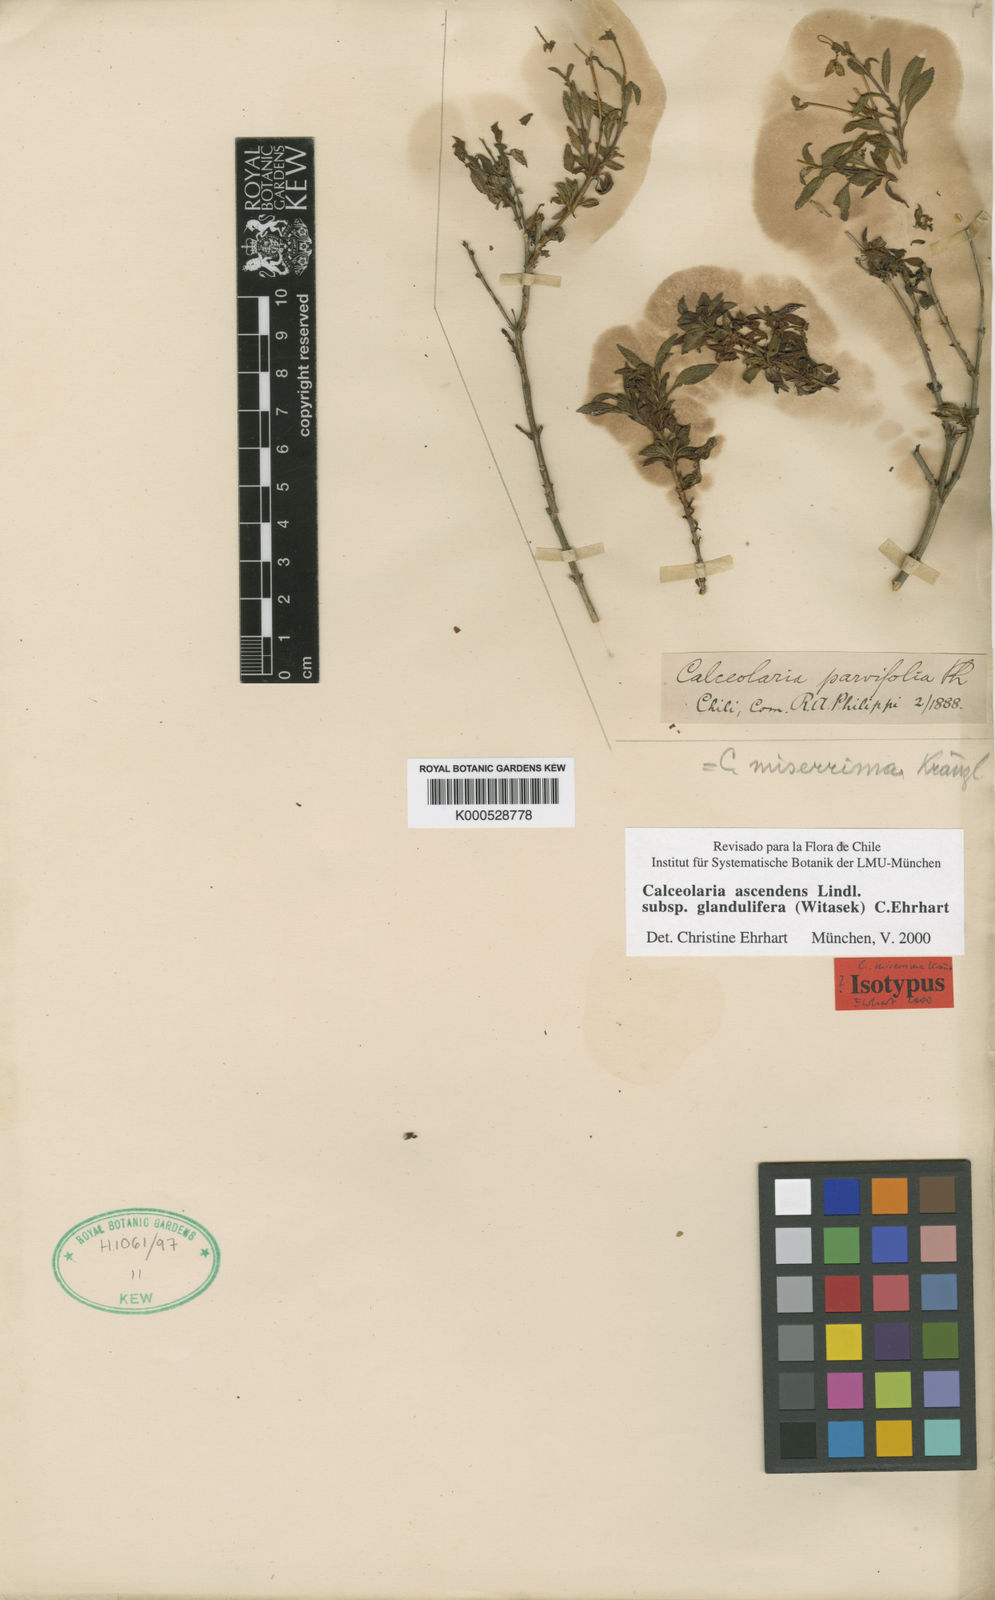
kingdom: Plantae
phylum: Tracheophyta
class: Magnoliopsida
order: Lamiales
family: Calceolariaceae
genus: Calceolaria
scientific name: Calceolaria ascendens
